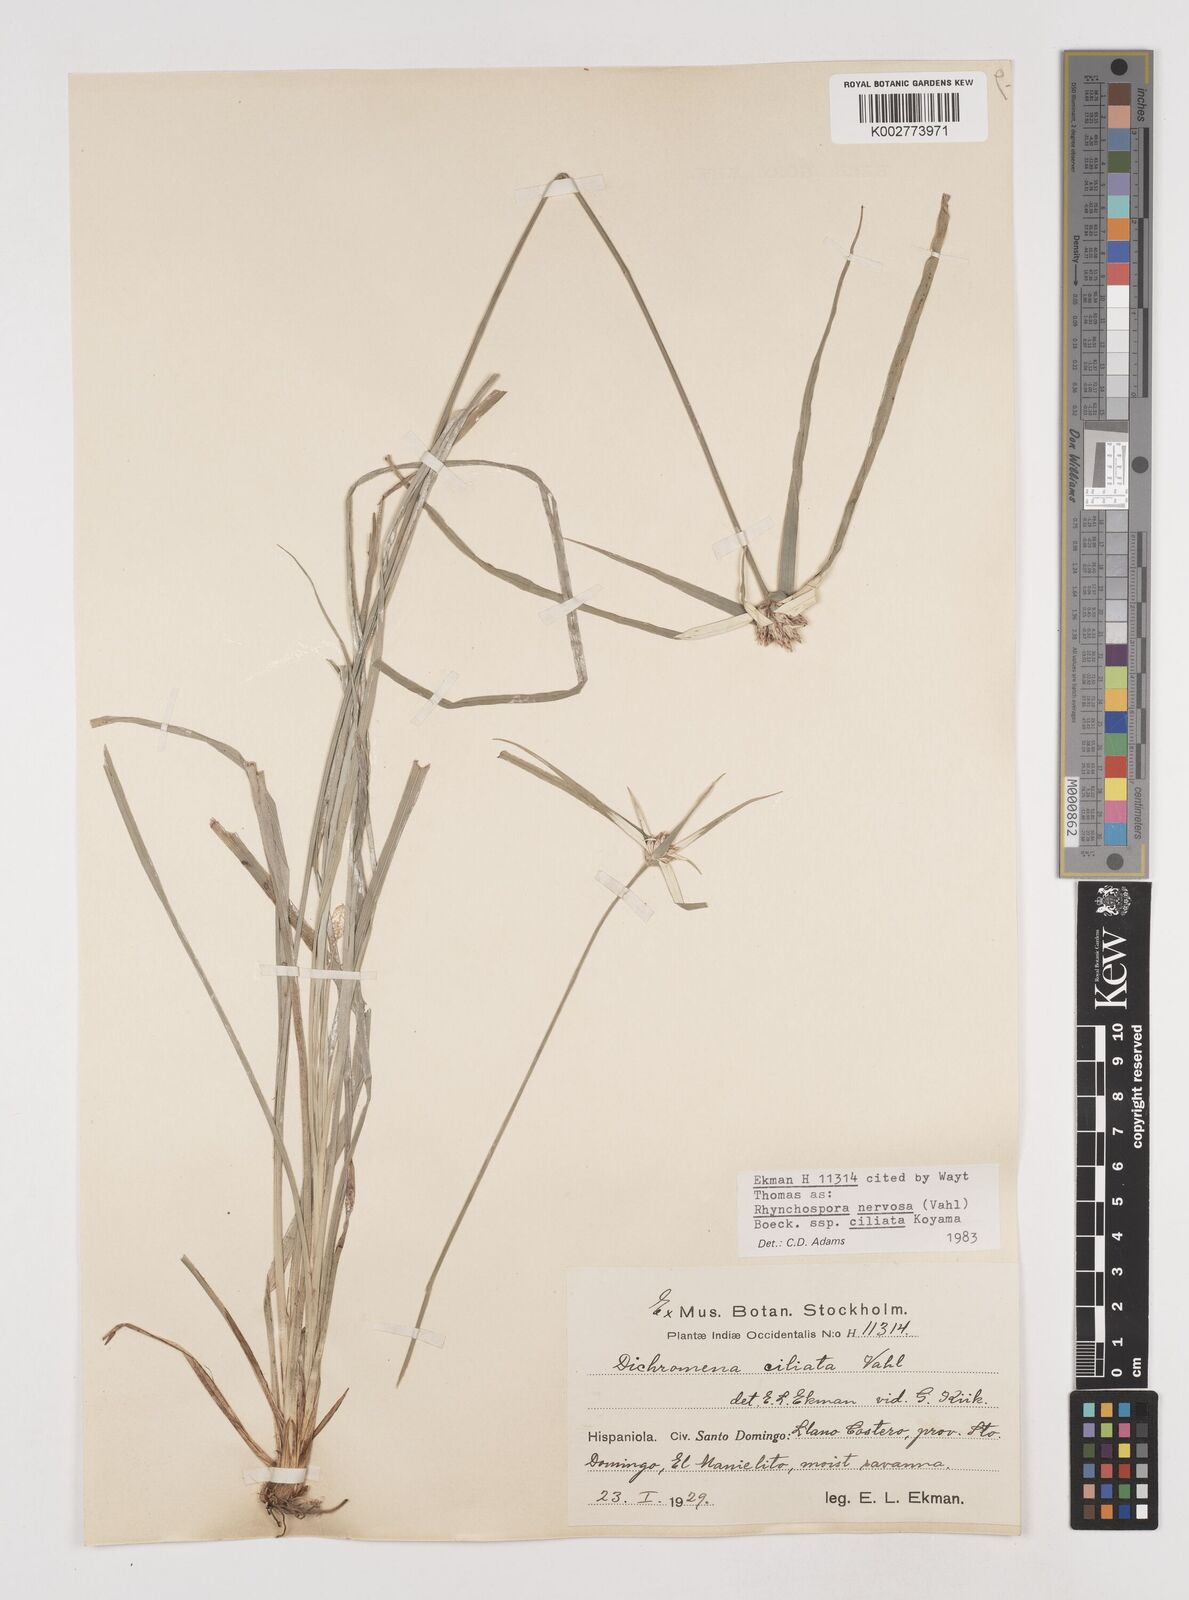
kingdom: Plantae
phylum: Tracheophyta
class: Liliopsida
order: Poales
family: Cyperaceae
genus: Rhynchospora
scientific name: Rhynchospora pura
